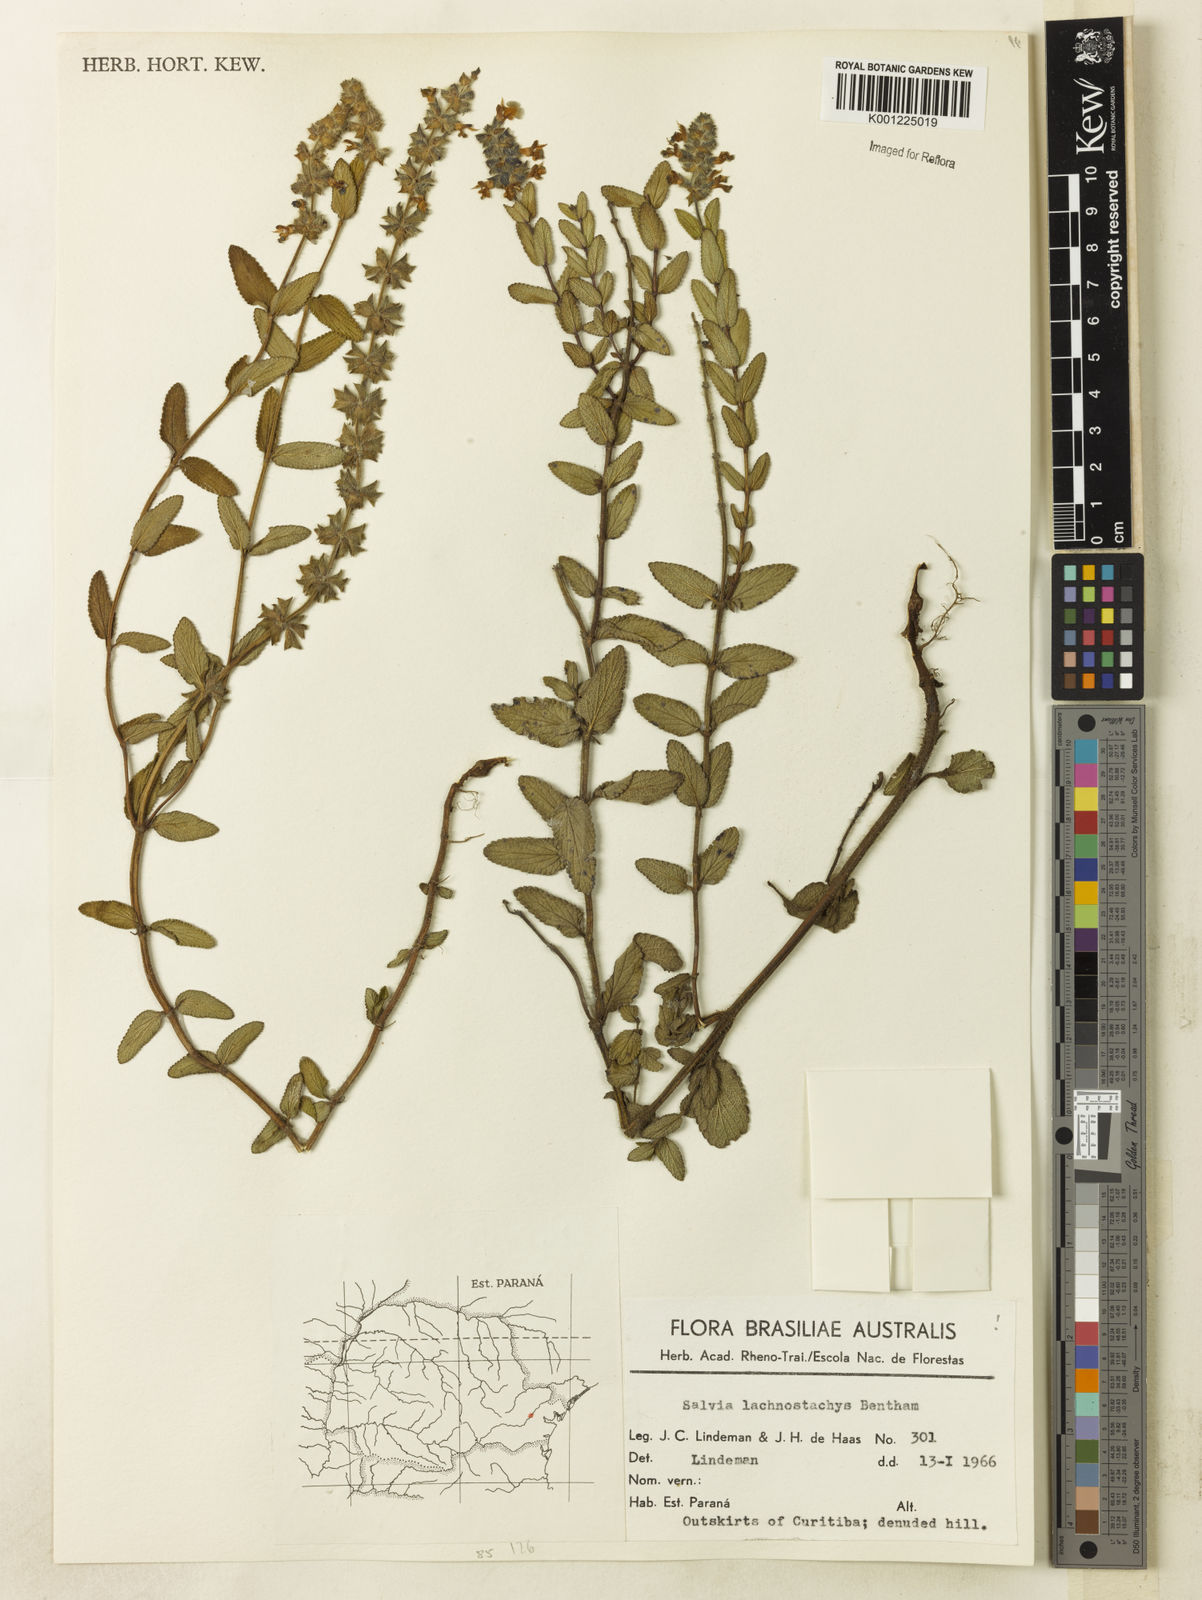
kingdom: Plantae
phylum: Tracheophyta
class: Magnoliopsida
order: Lamiales
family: Lamiaceae
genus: Salvia
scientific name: Salvia lachnostachys
